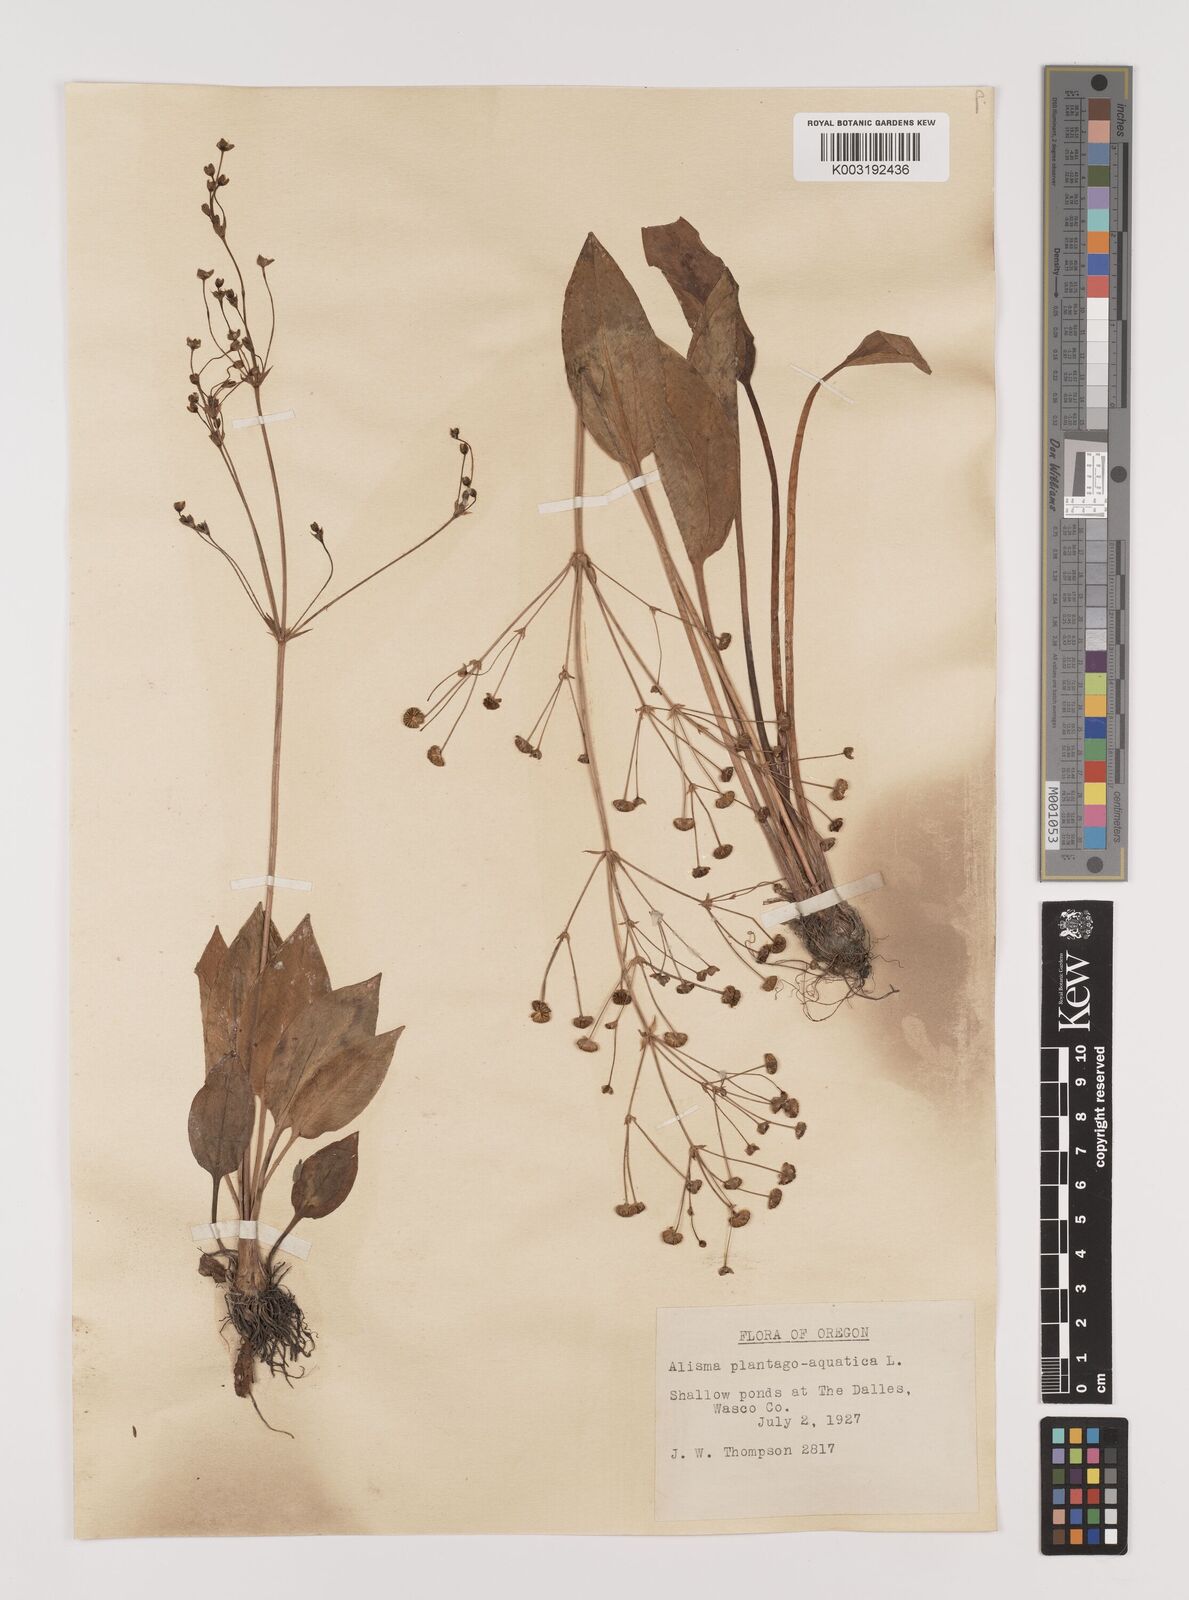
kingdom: Plantae
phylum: Tracheophyta
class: Liliopsida
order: Alismatales
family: Alismataceae
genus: Alisma
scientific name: Alisma triviale
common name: Northern water-plantain
